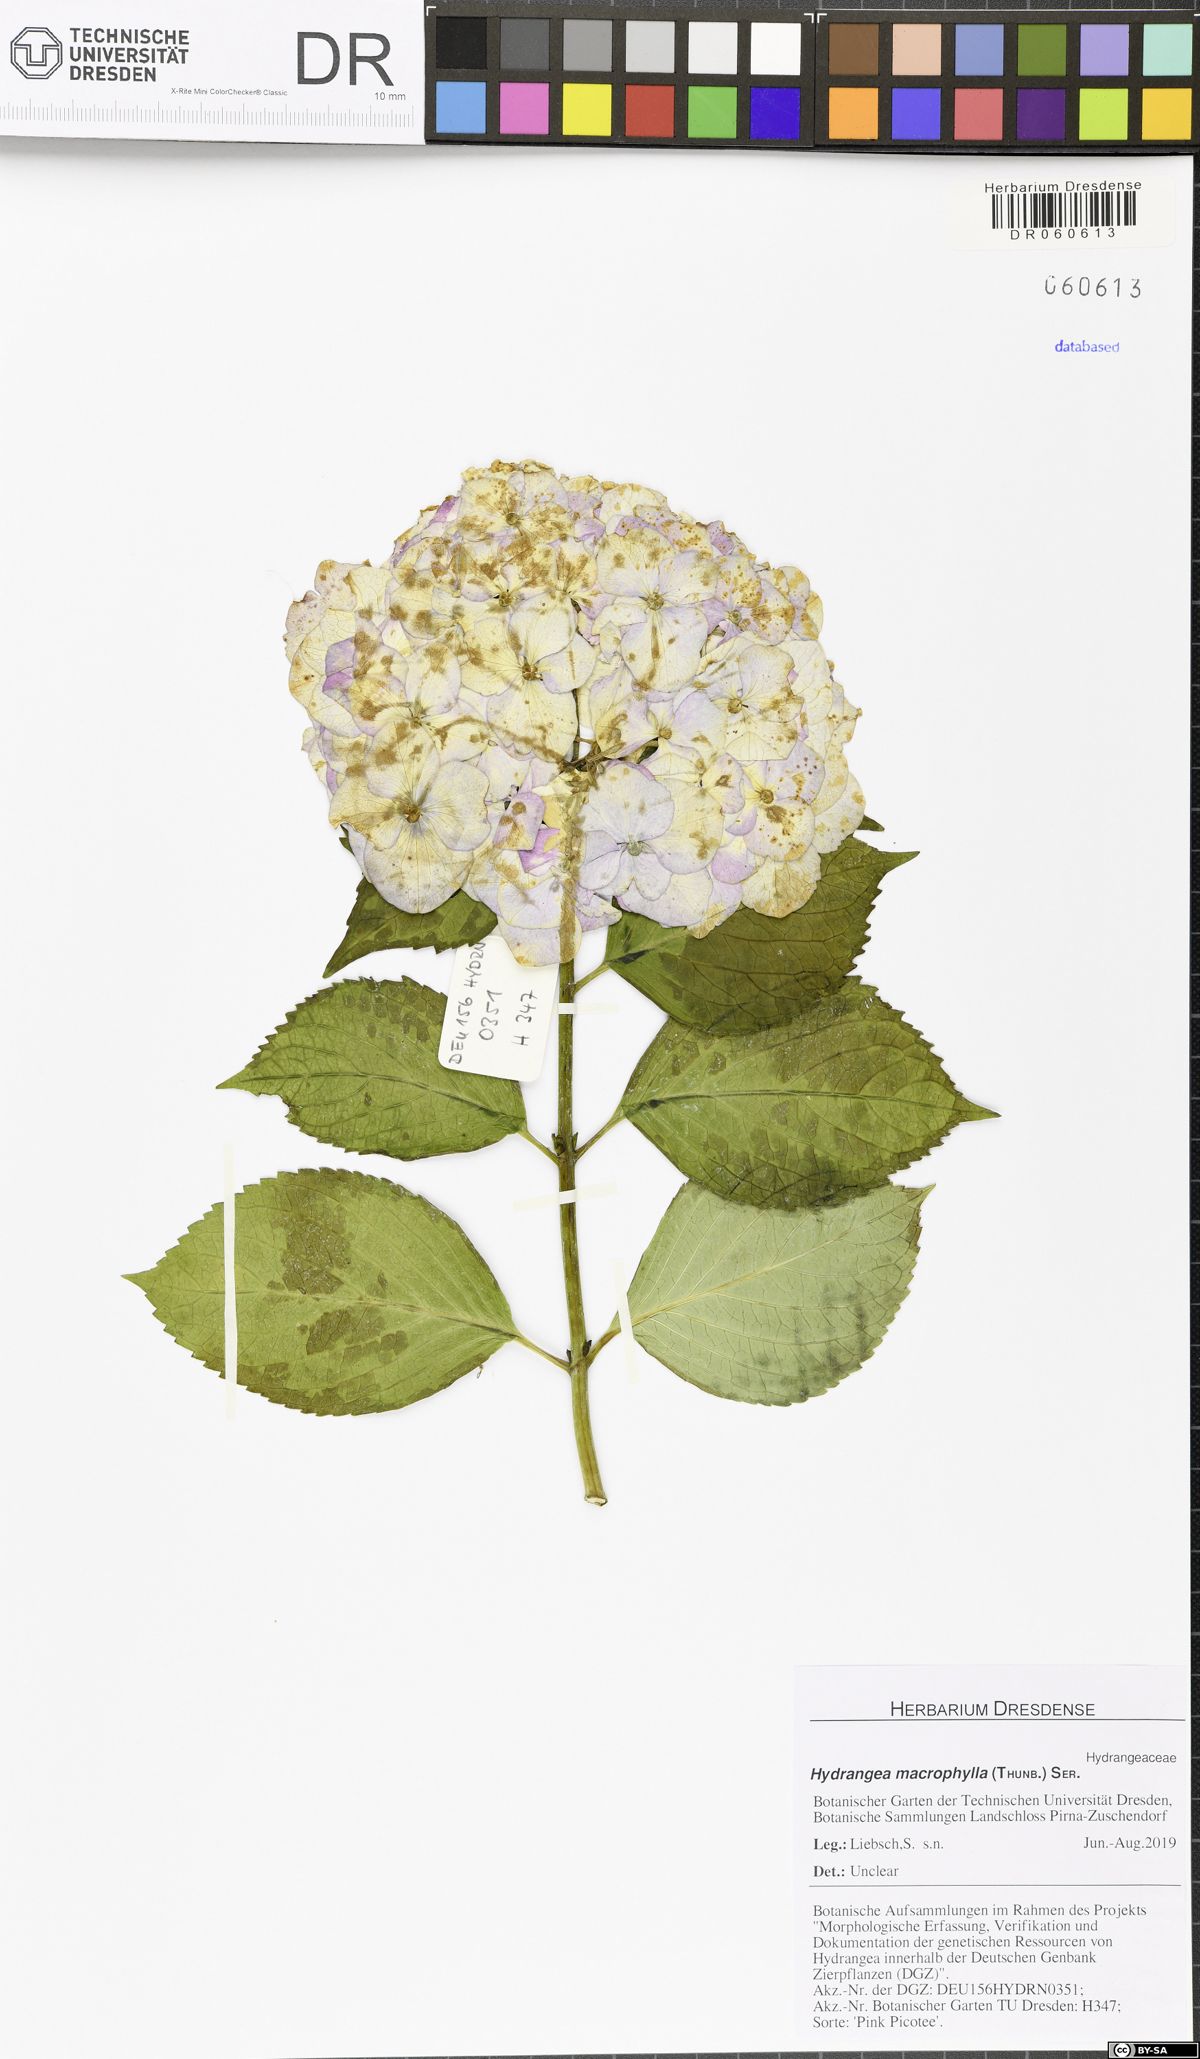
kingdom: Plantae
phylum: Tracheophyta
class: Magnoliopsida
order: Cornales
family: Hydrangeaceae
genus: Hydrangea
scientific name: Hydrangea macrophylla
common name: Hydrangea
